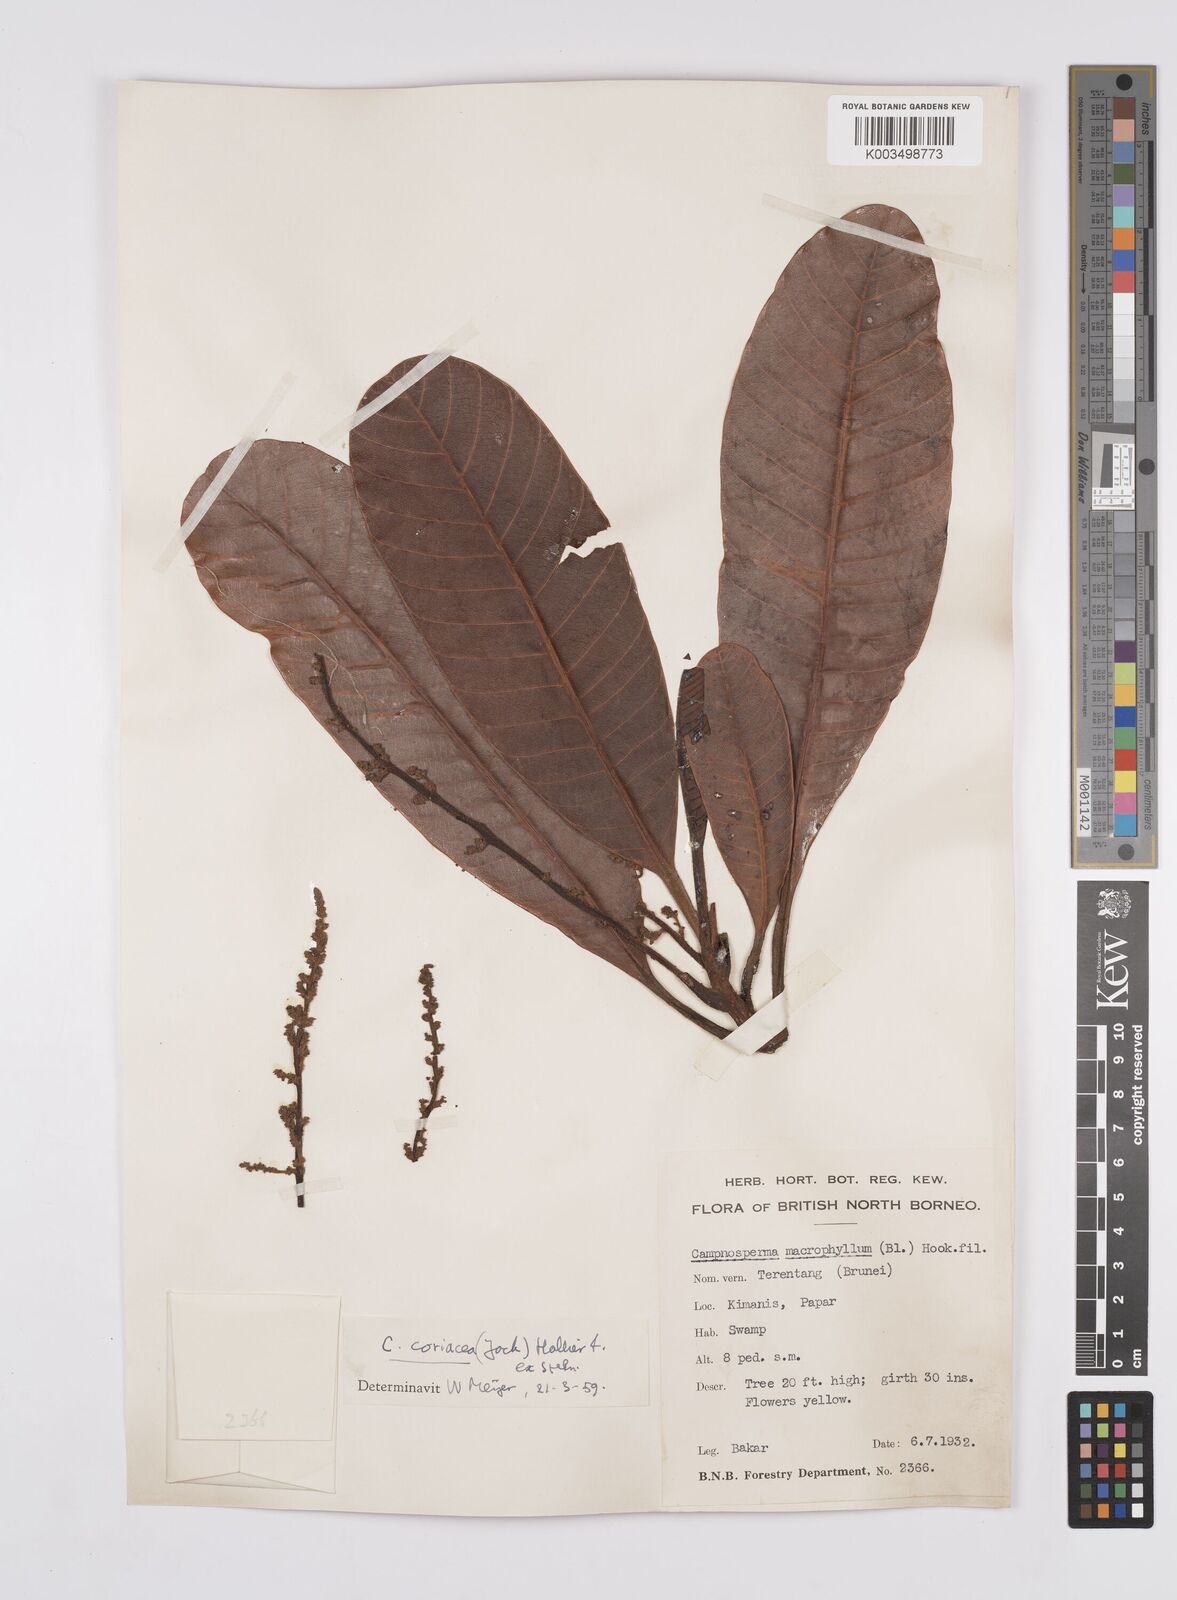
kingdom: Plantae
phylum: Tracheophyta
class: Magnoliopsida
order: Sapindales
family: Anacardiaceae
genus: Campnosperma
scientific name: Campnosperma coriaceum
